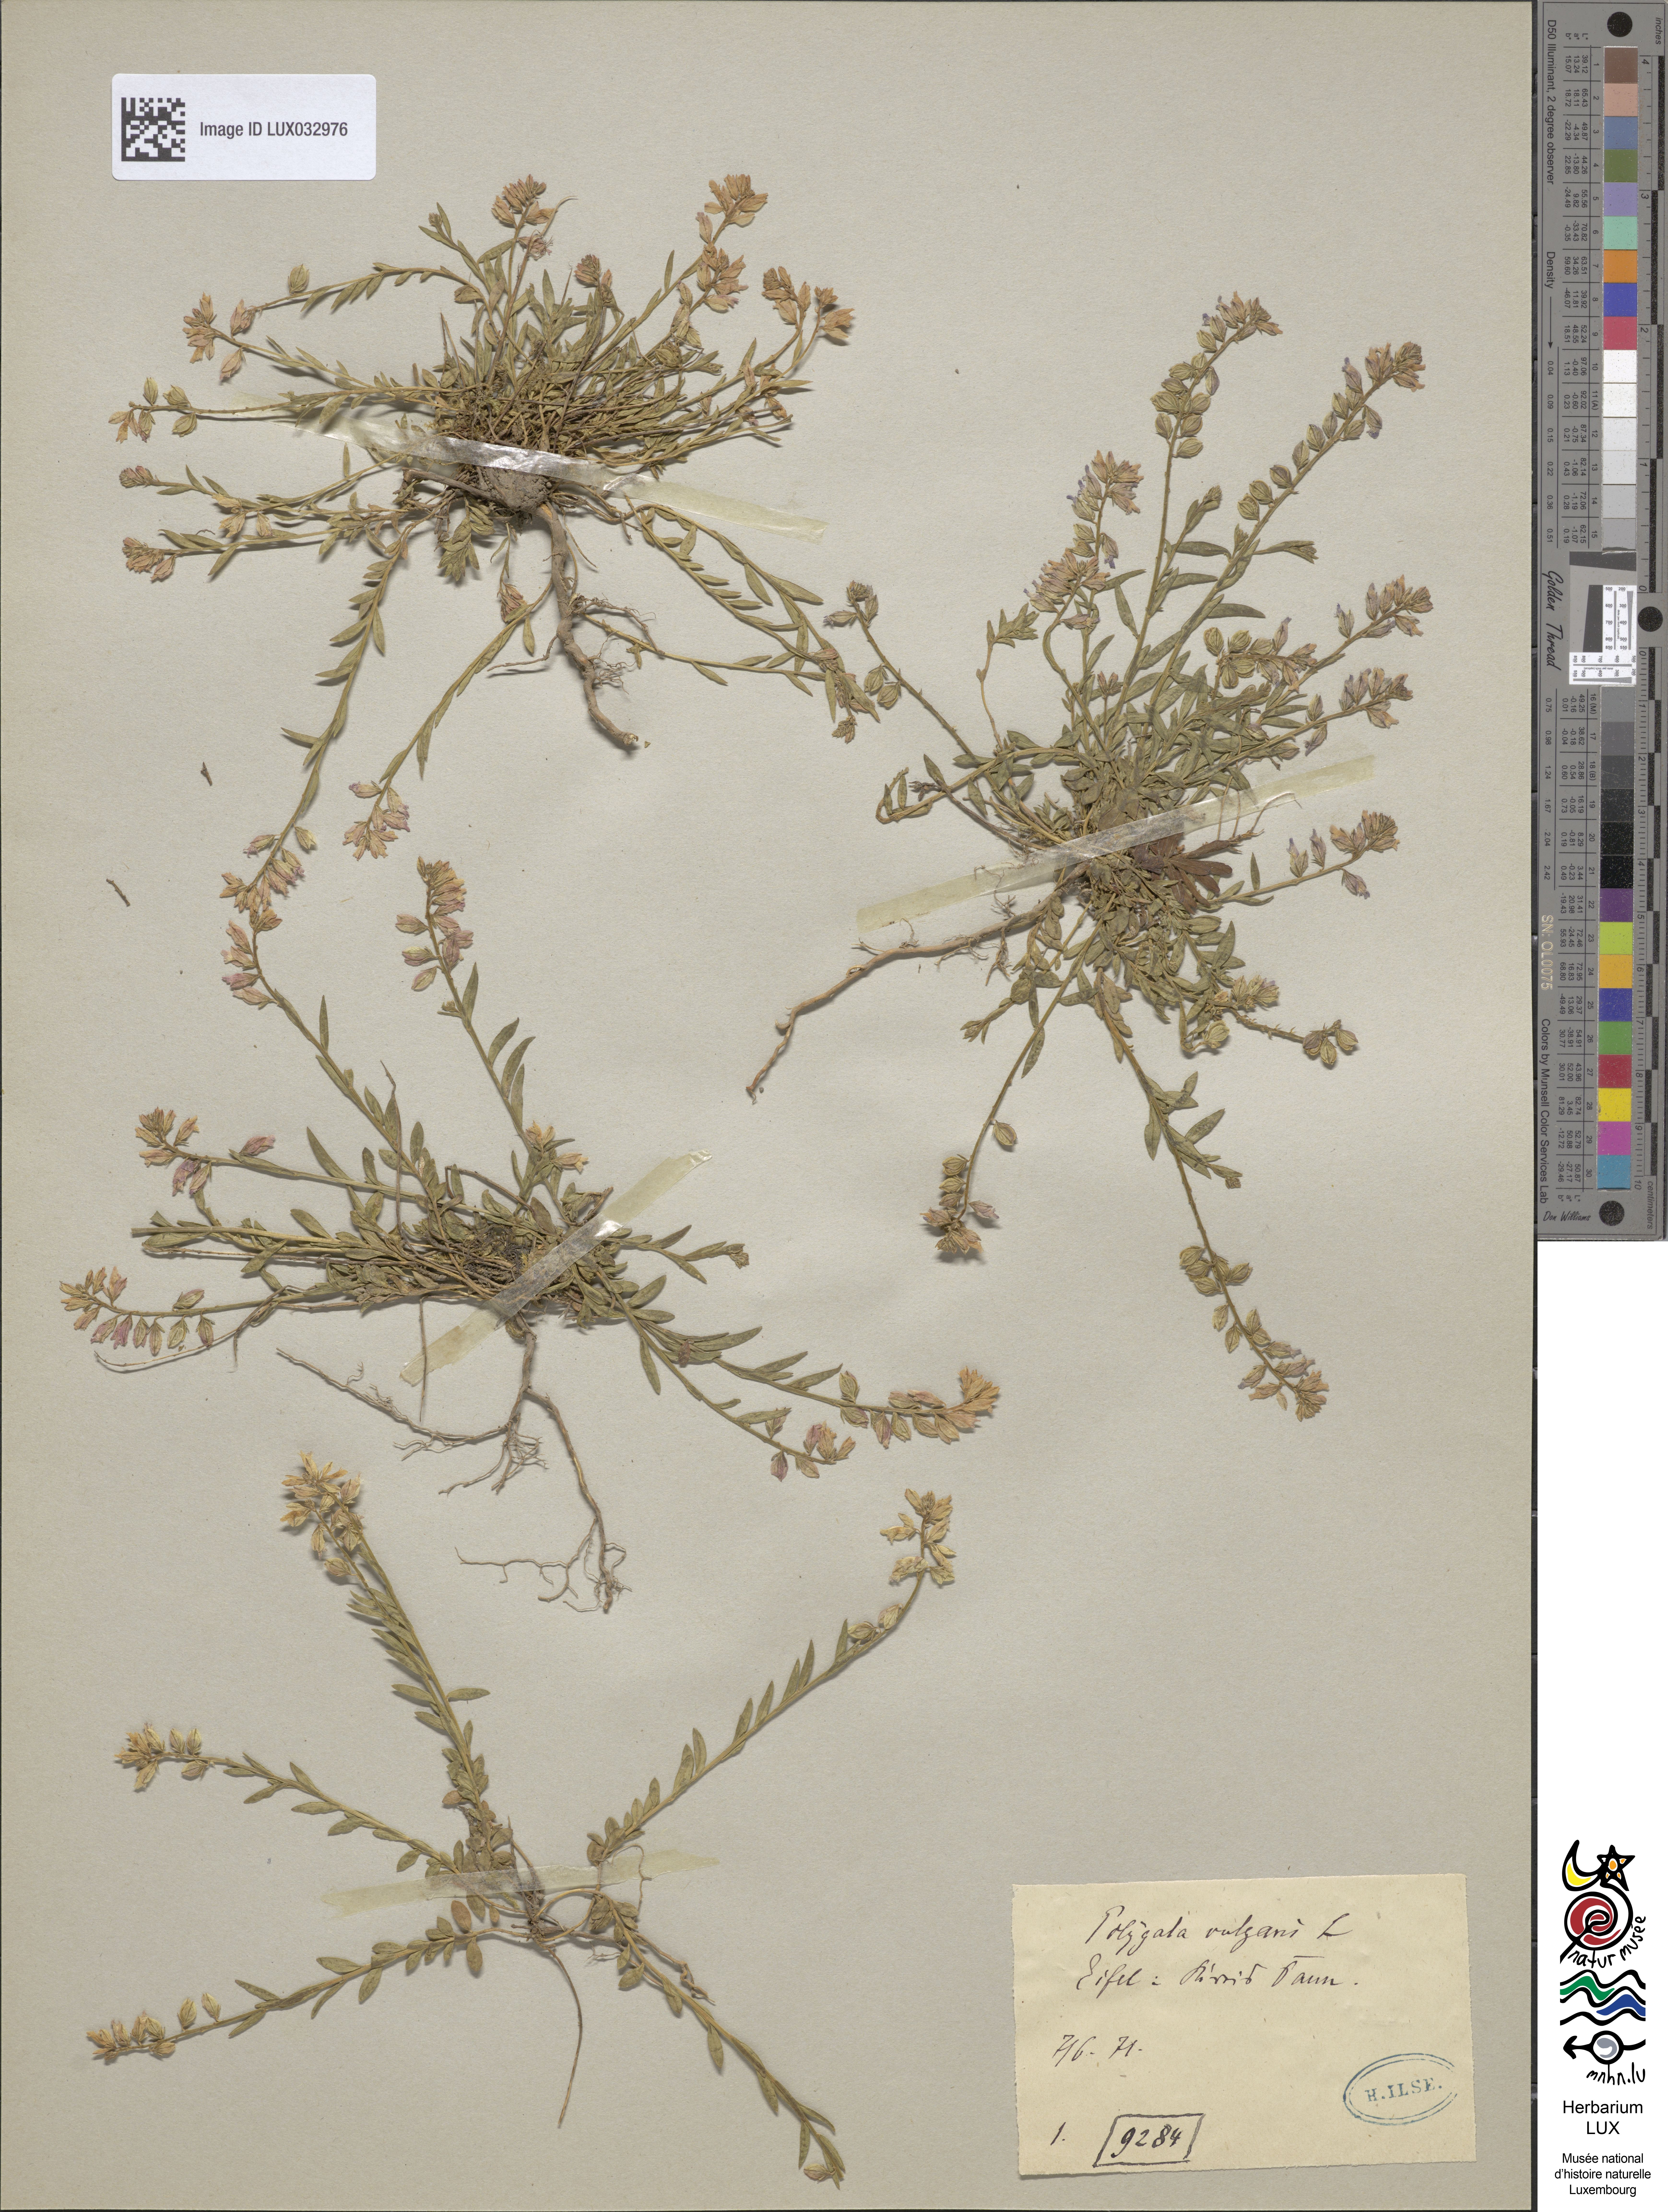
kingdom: Plantae
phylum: Tracheophyta
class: Magnoliopsida
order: Fabales
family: Polygalaceae
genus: Polygala
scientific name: Polygala vulgaris
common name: Common milkwort
